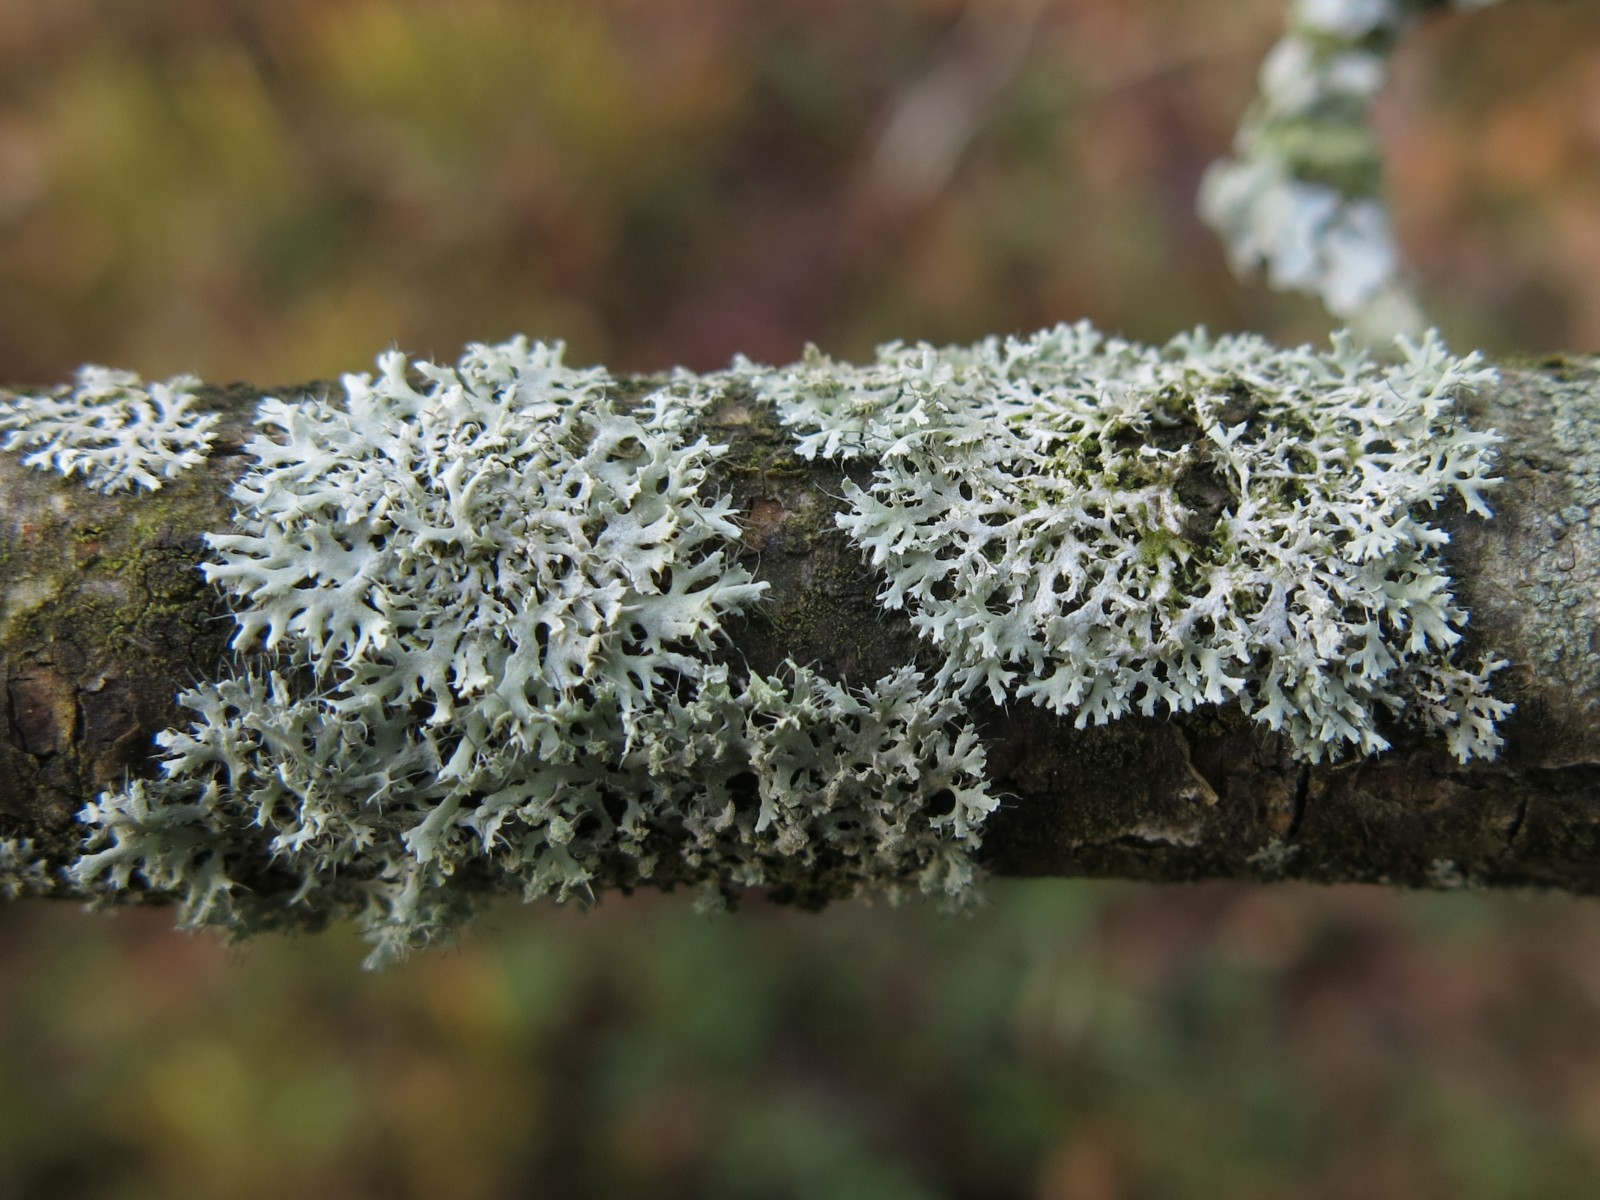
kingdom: Fungi
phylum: Ascomycota
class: Lecanoromycetes
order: Caliciales
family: Physciaceae
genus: Physcia
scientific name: Physcia tenella
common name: spæd rosetlav
